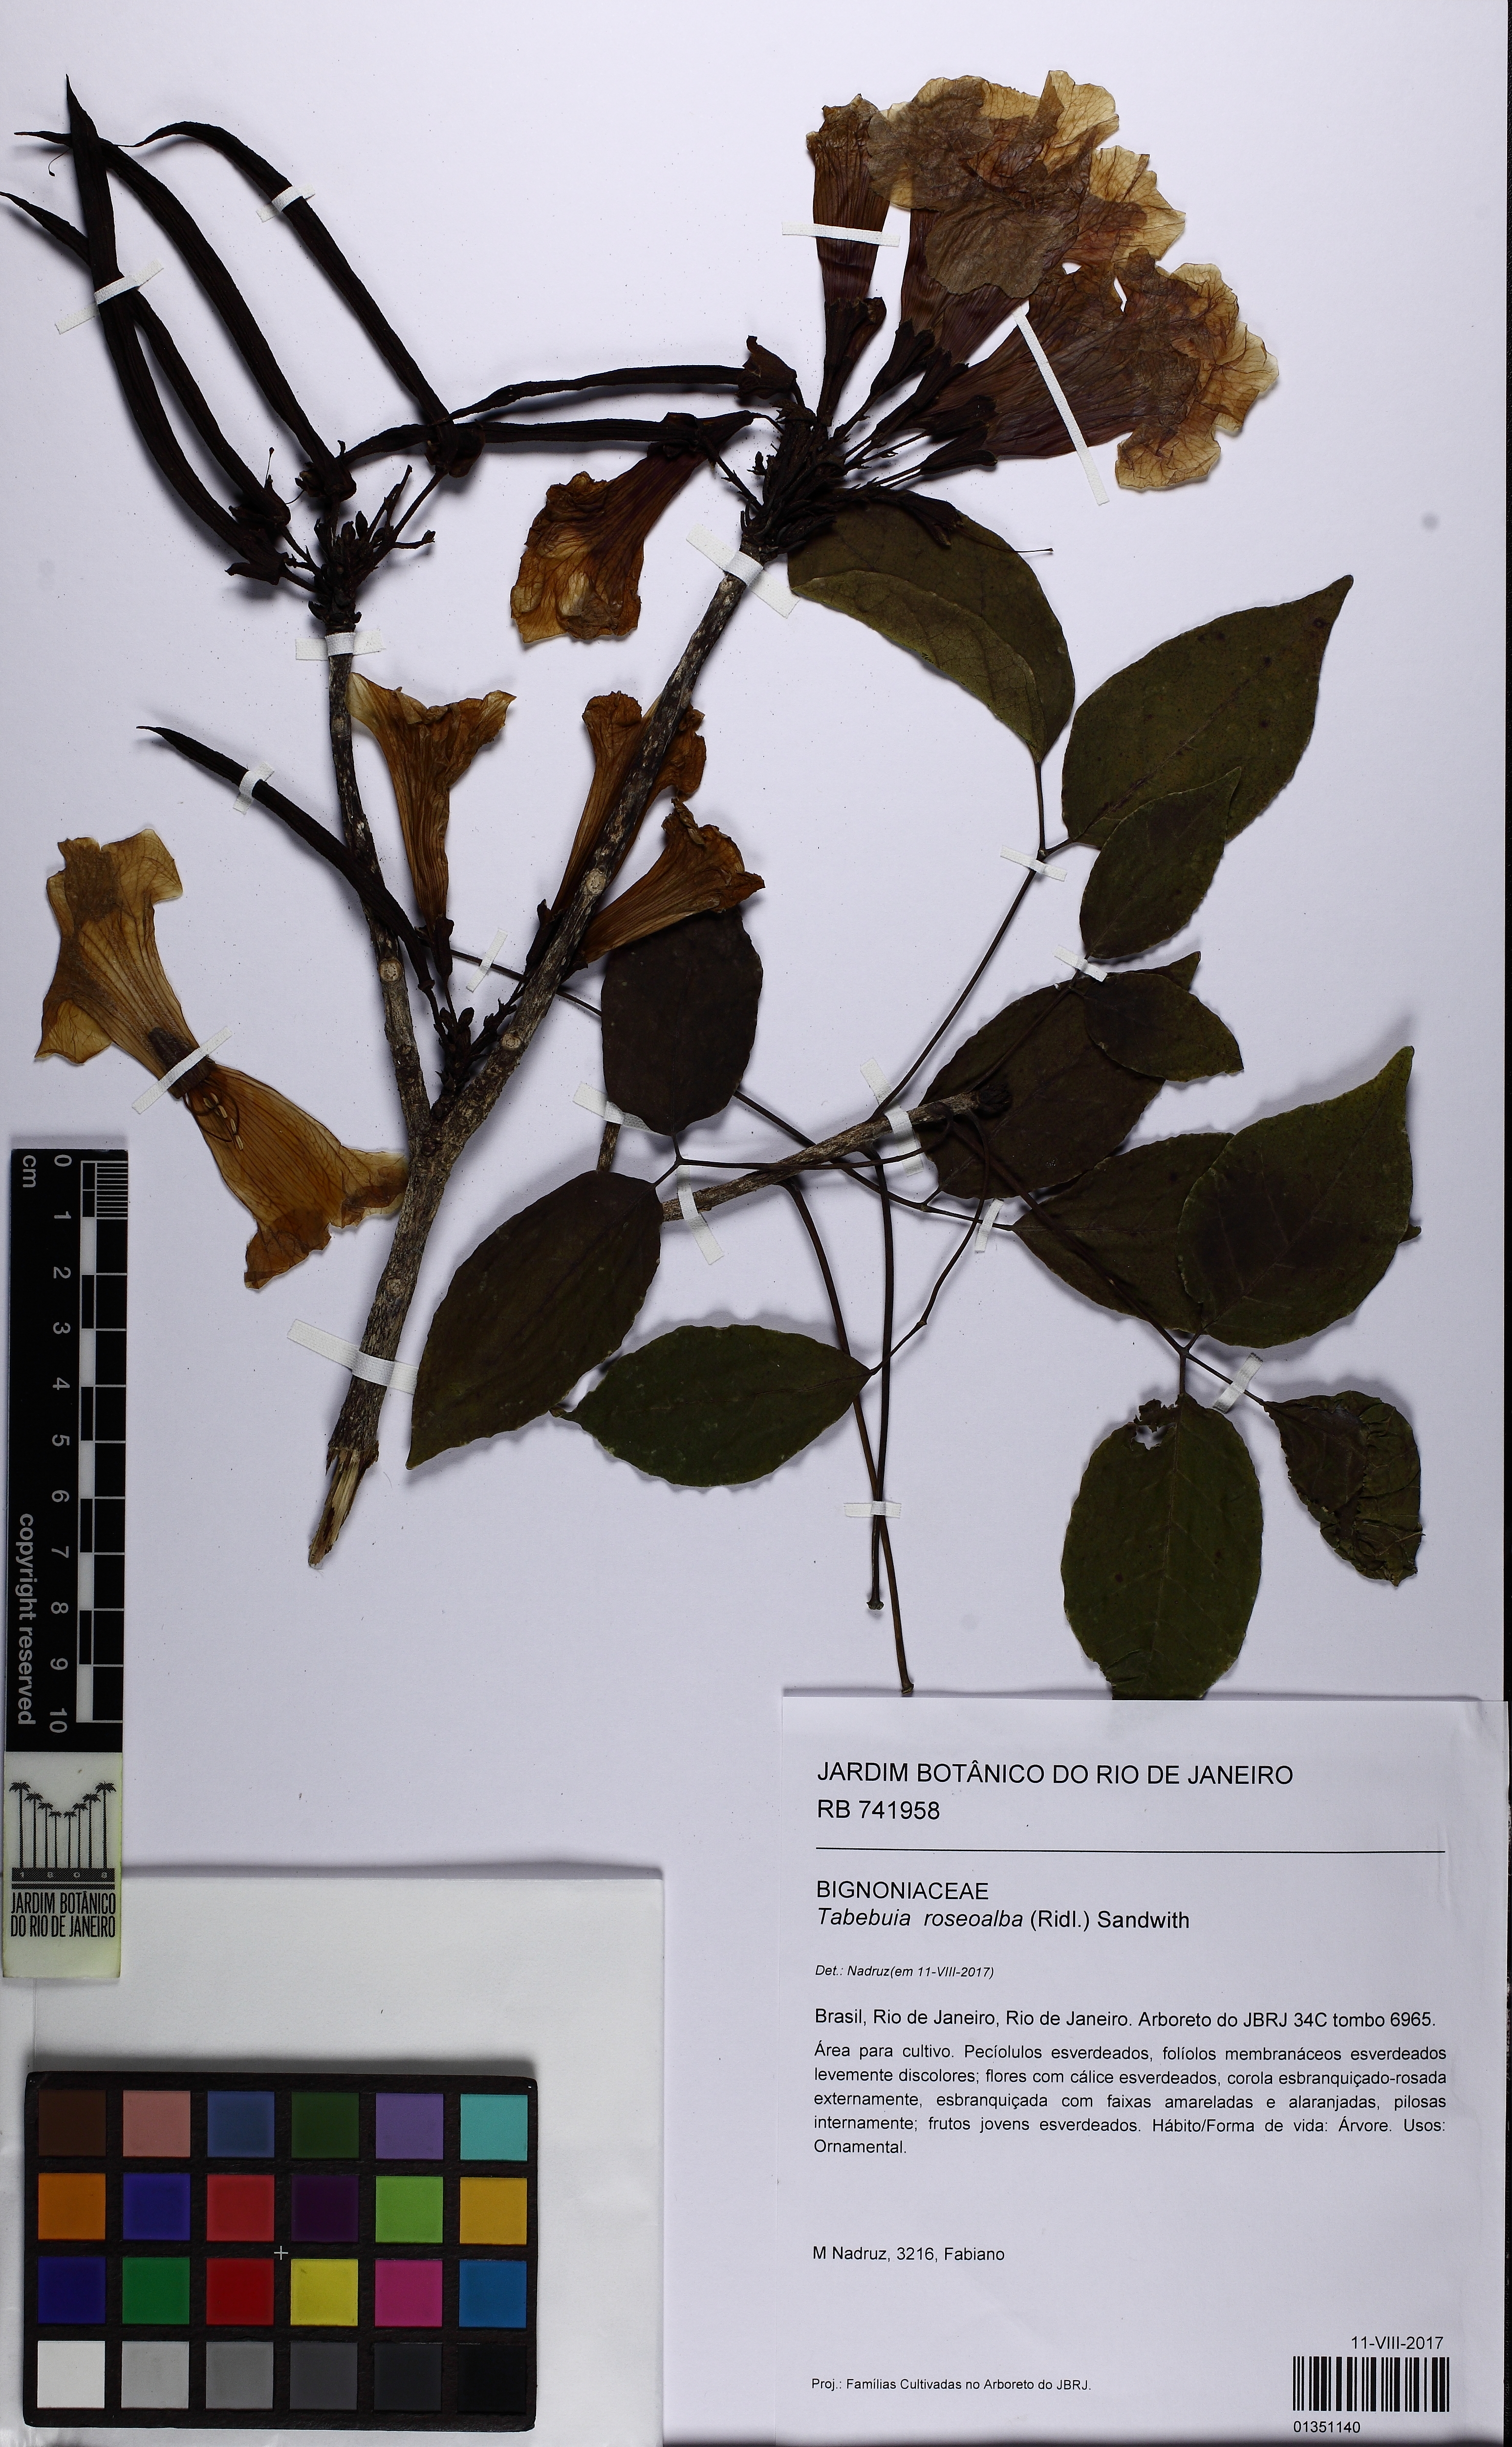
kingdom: Plantae
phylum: Tracheophyta
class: Magnoliopsida
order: Lamiales
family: Bignoniaceae
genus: Tabebuia
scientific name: Tabebuia roseoalba
